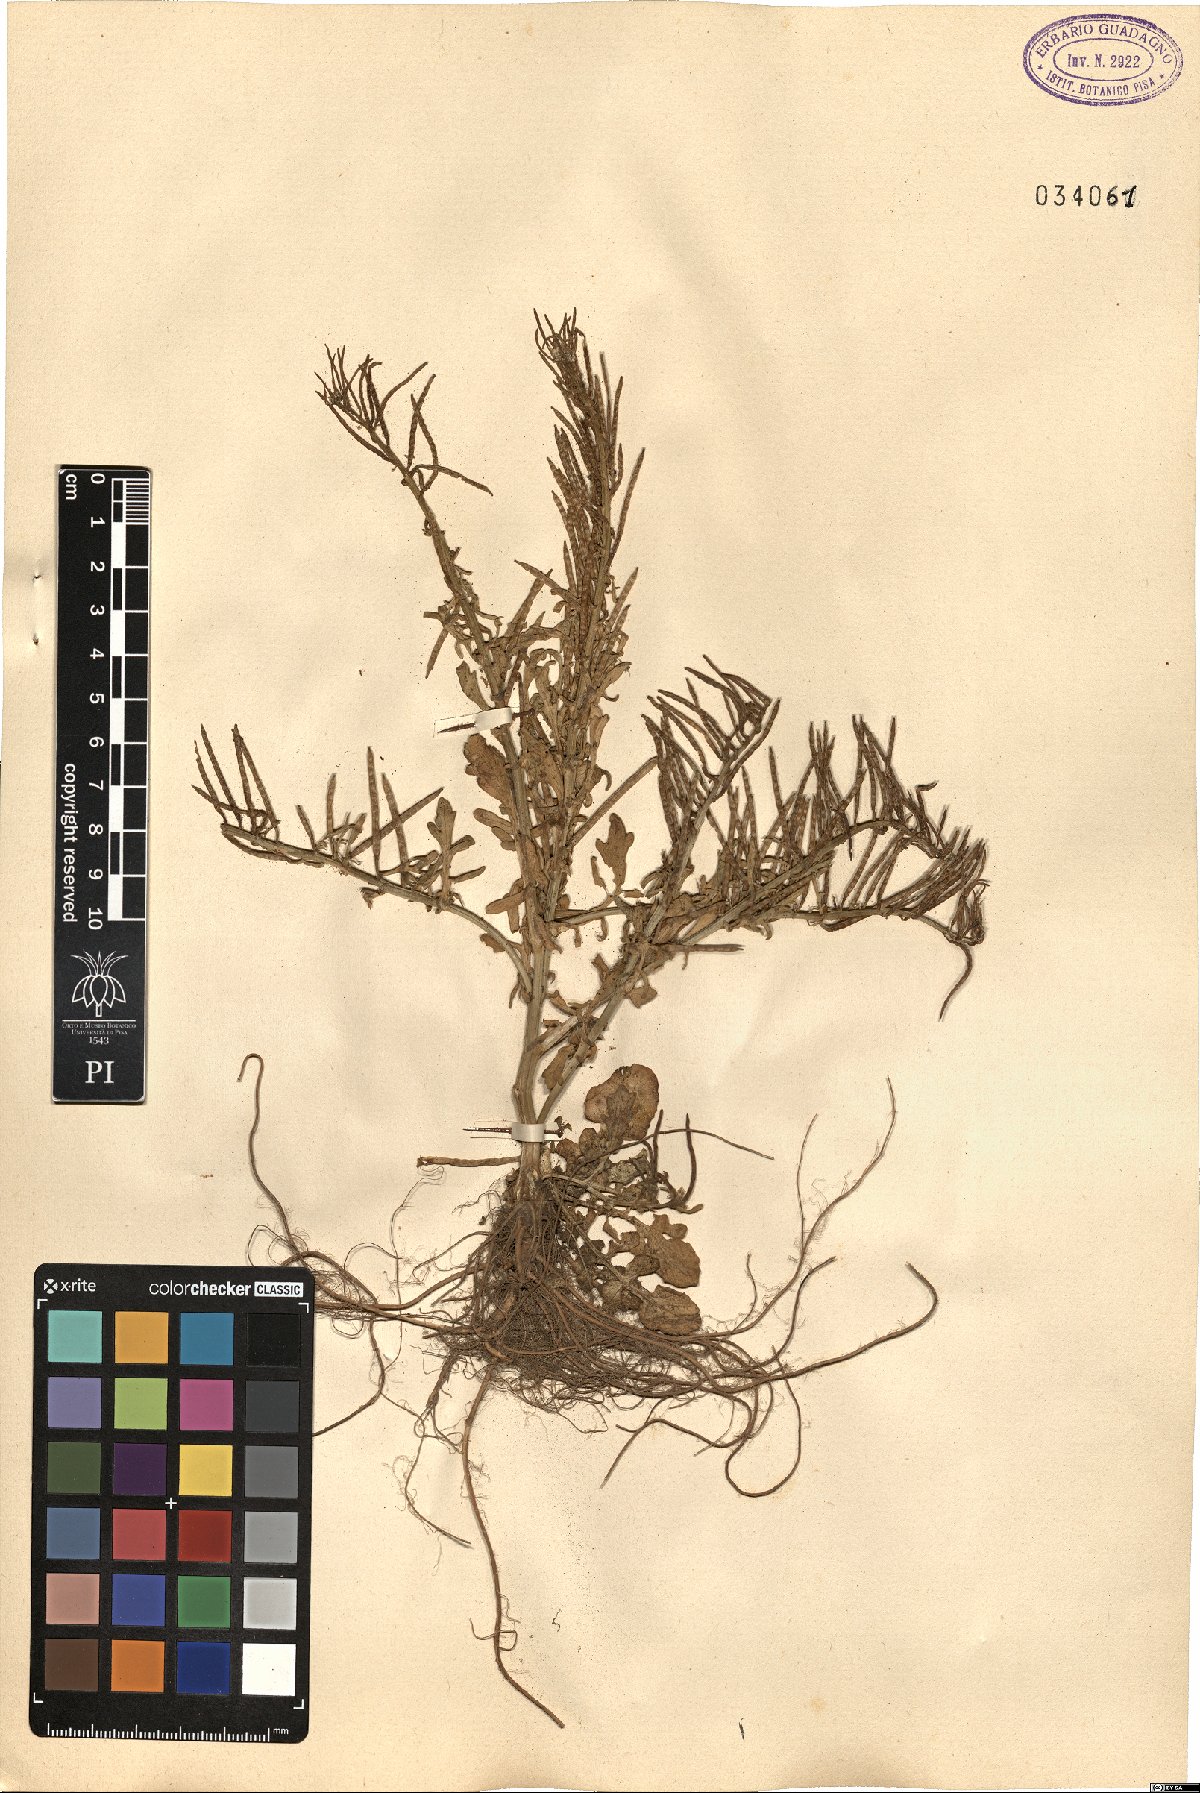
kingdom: Plantae
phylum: Tracheophyta
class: Magnoliopsida
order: Brassicales
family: Brassicaceae
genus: Barbarea
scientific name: Barbarea
